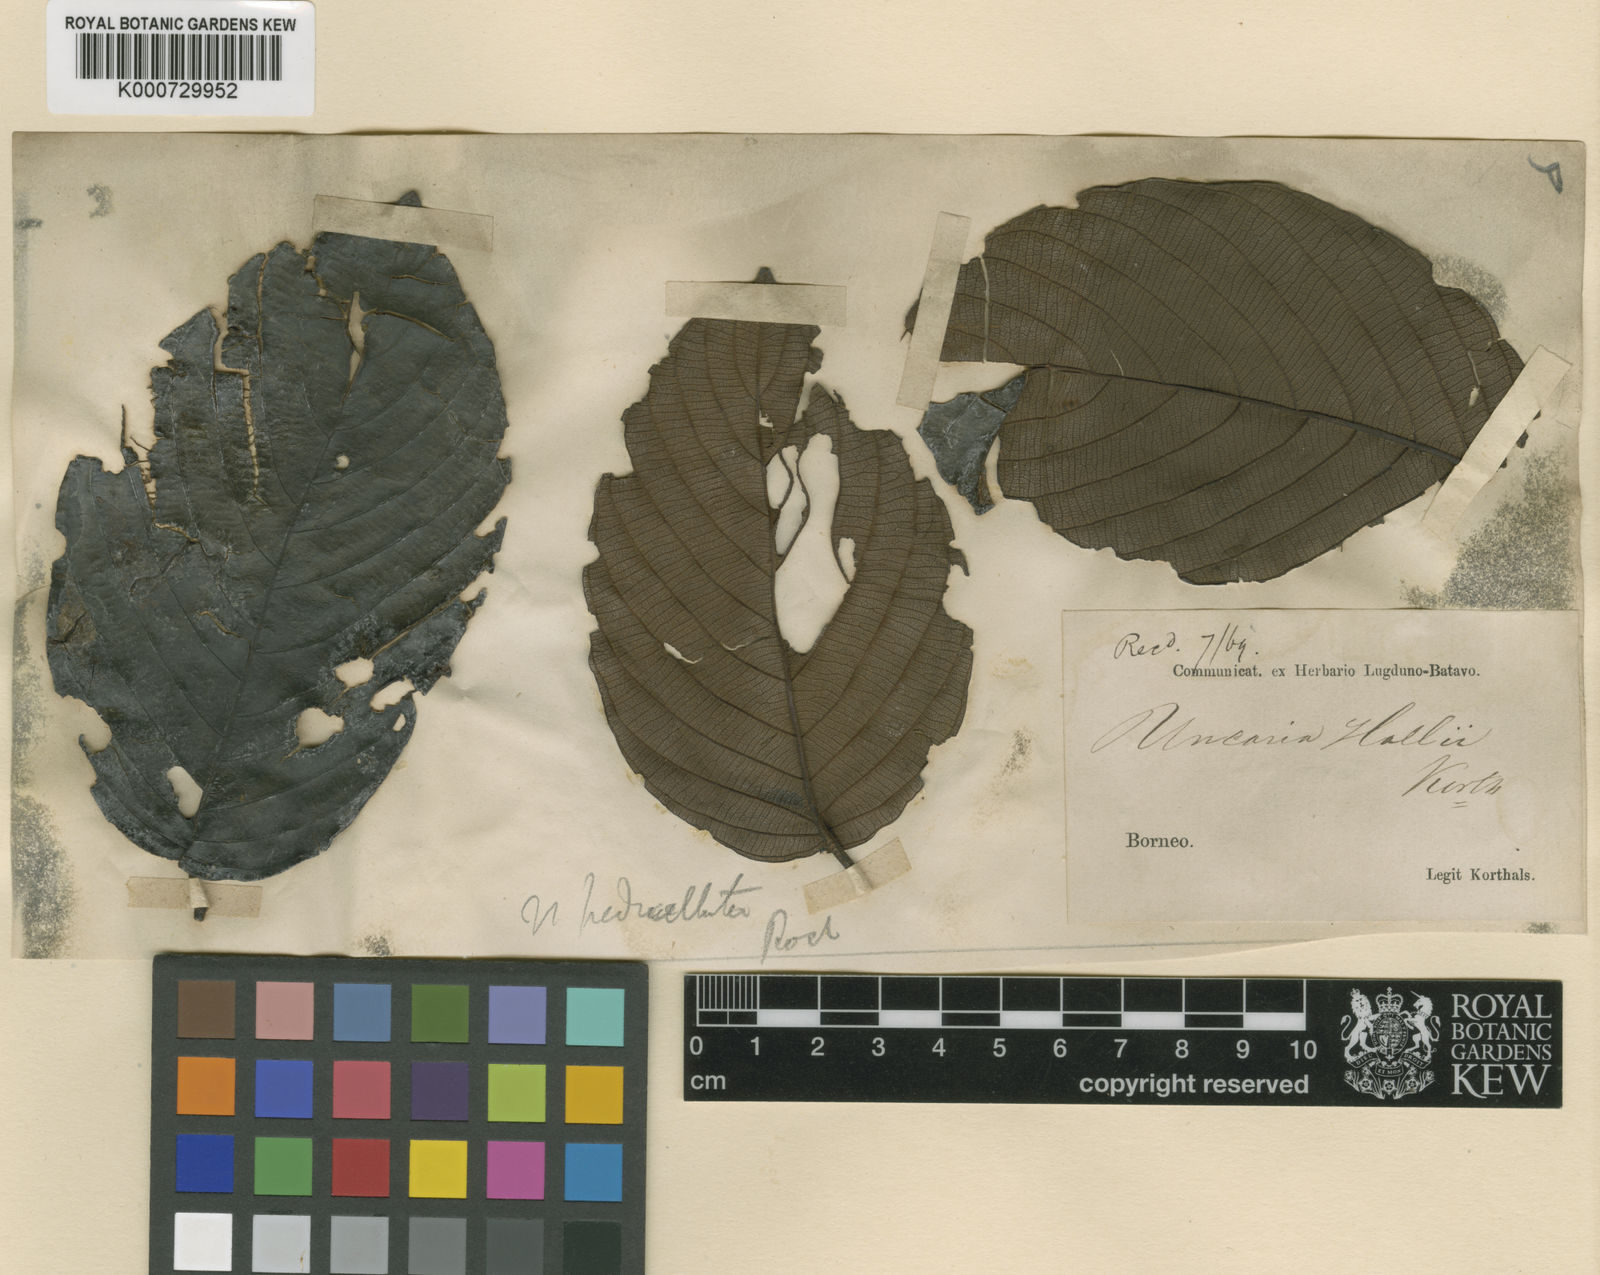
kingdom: Plantae
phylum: Tracheophyta
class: Magnoliopsida
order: Gentianales
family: Rubiaceae
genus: Uncaria
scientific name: Uncaria cordata
